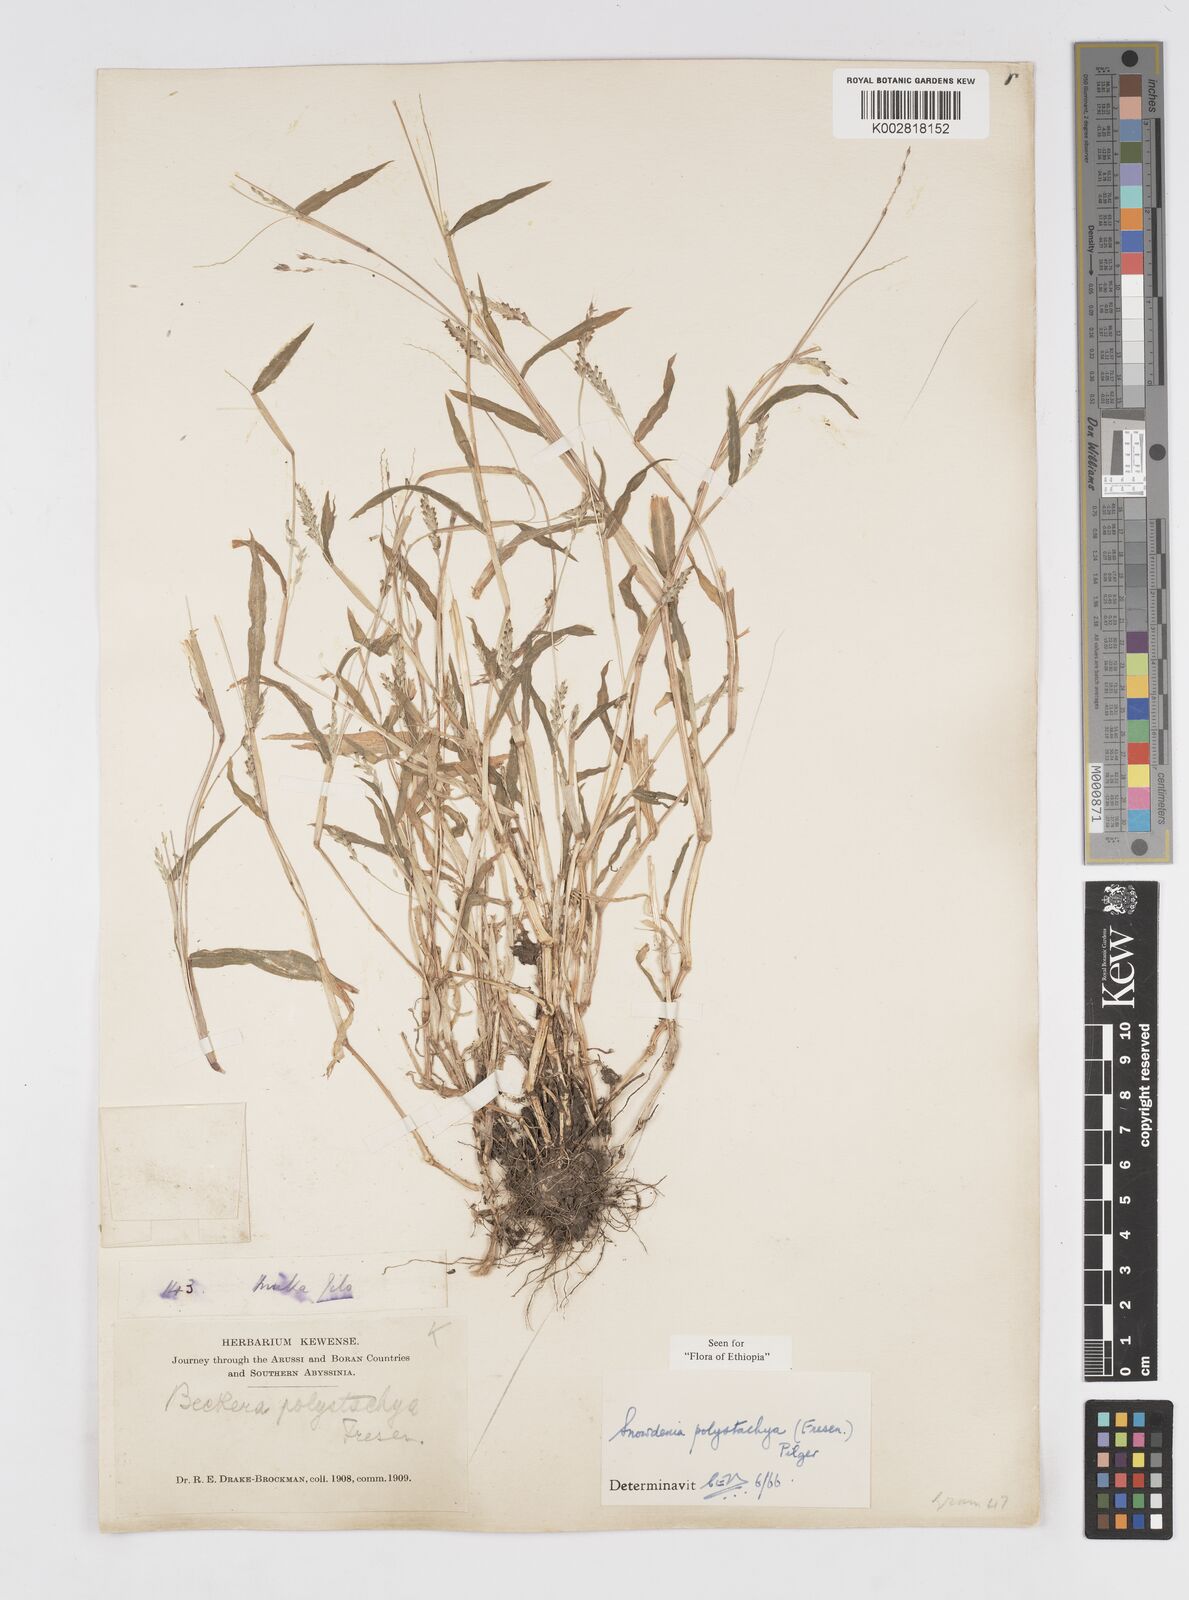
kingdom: Plantae
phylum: Tracheophyta
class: Liliopsida
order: Poales
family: Poaceae
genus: Snowdenia
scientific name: Snowdenia polystachya
